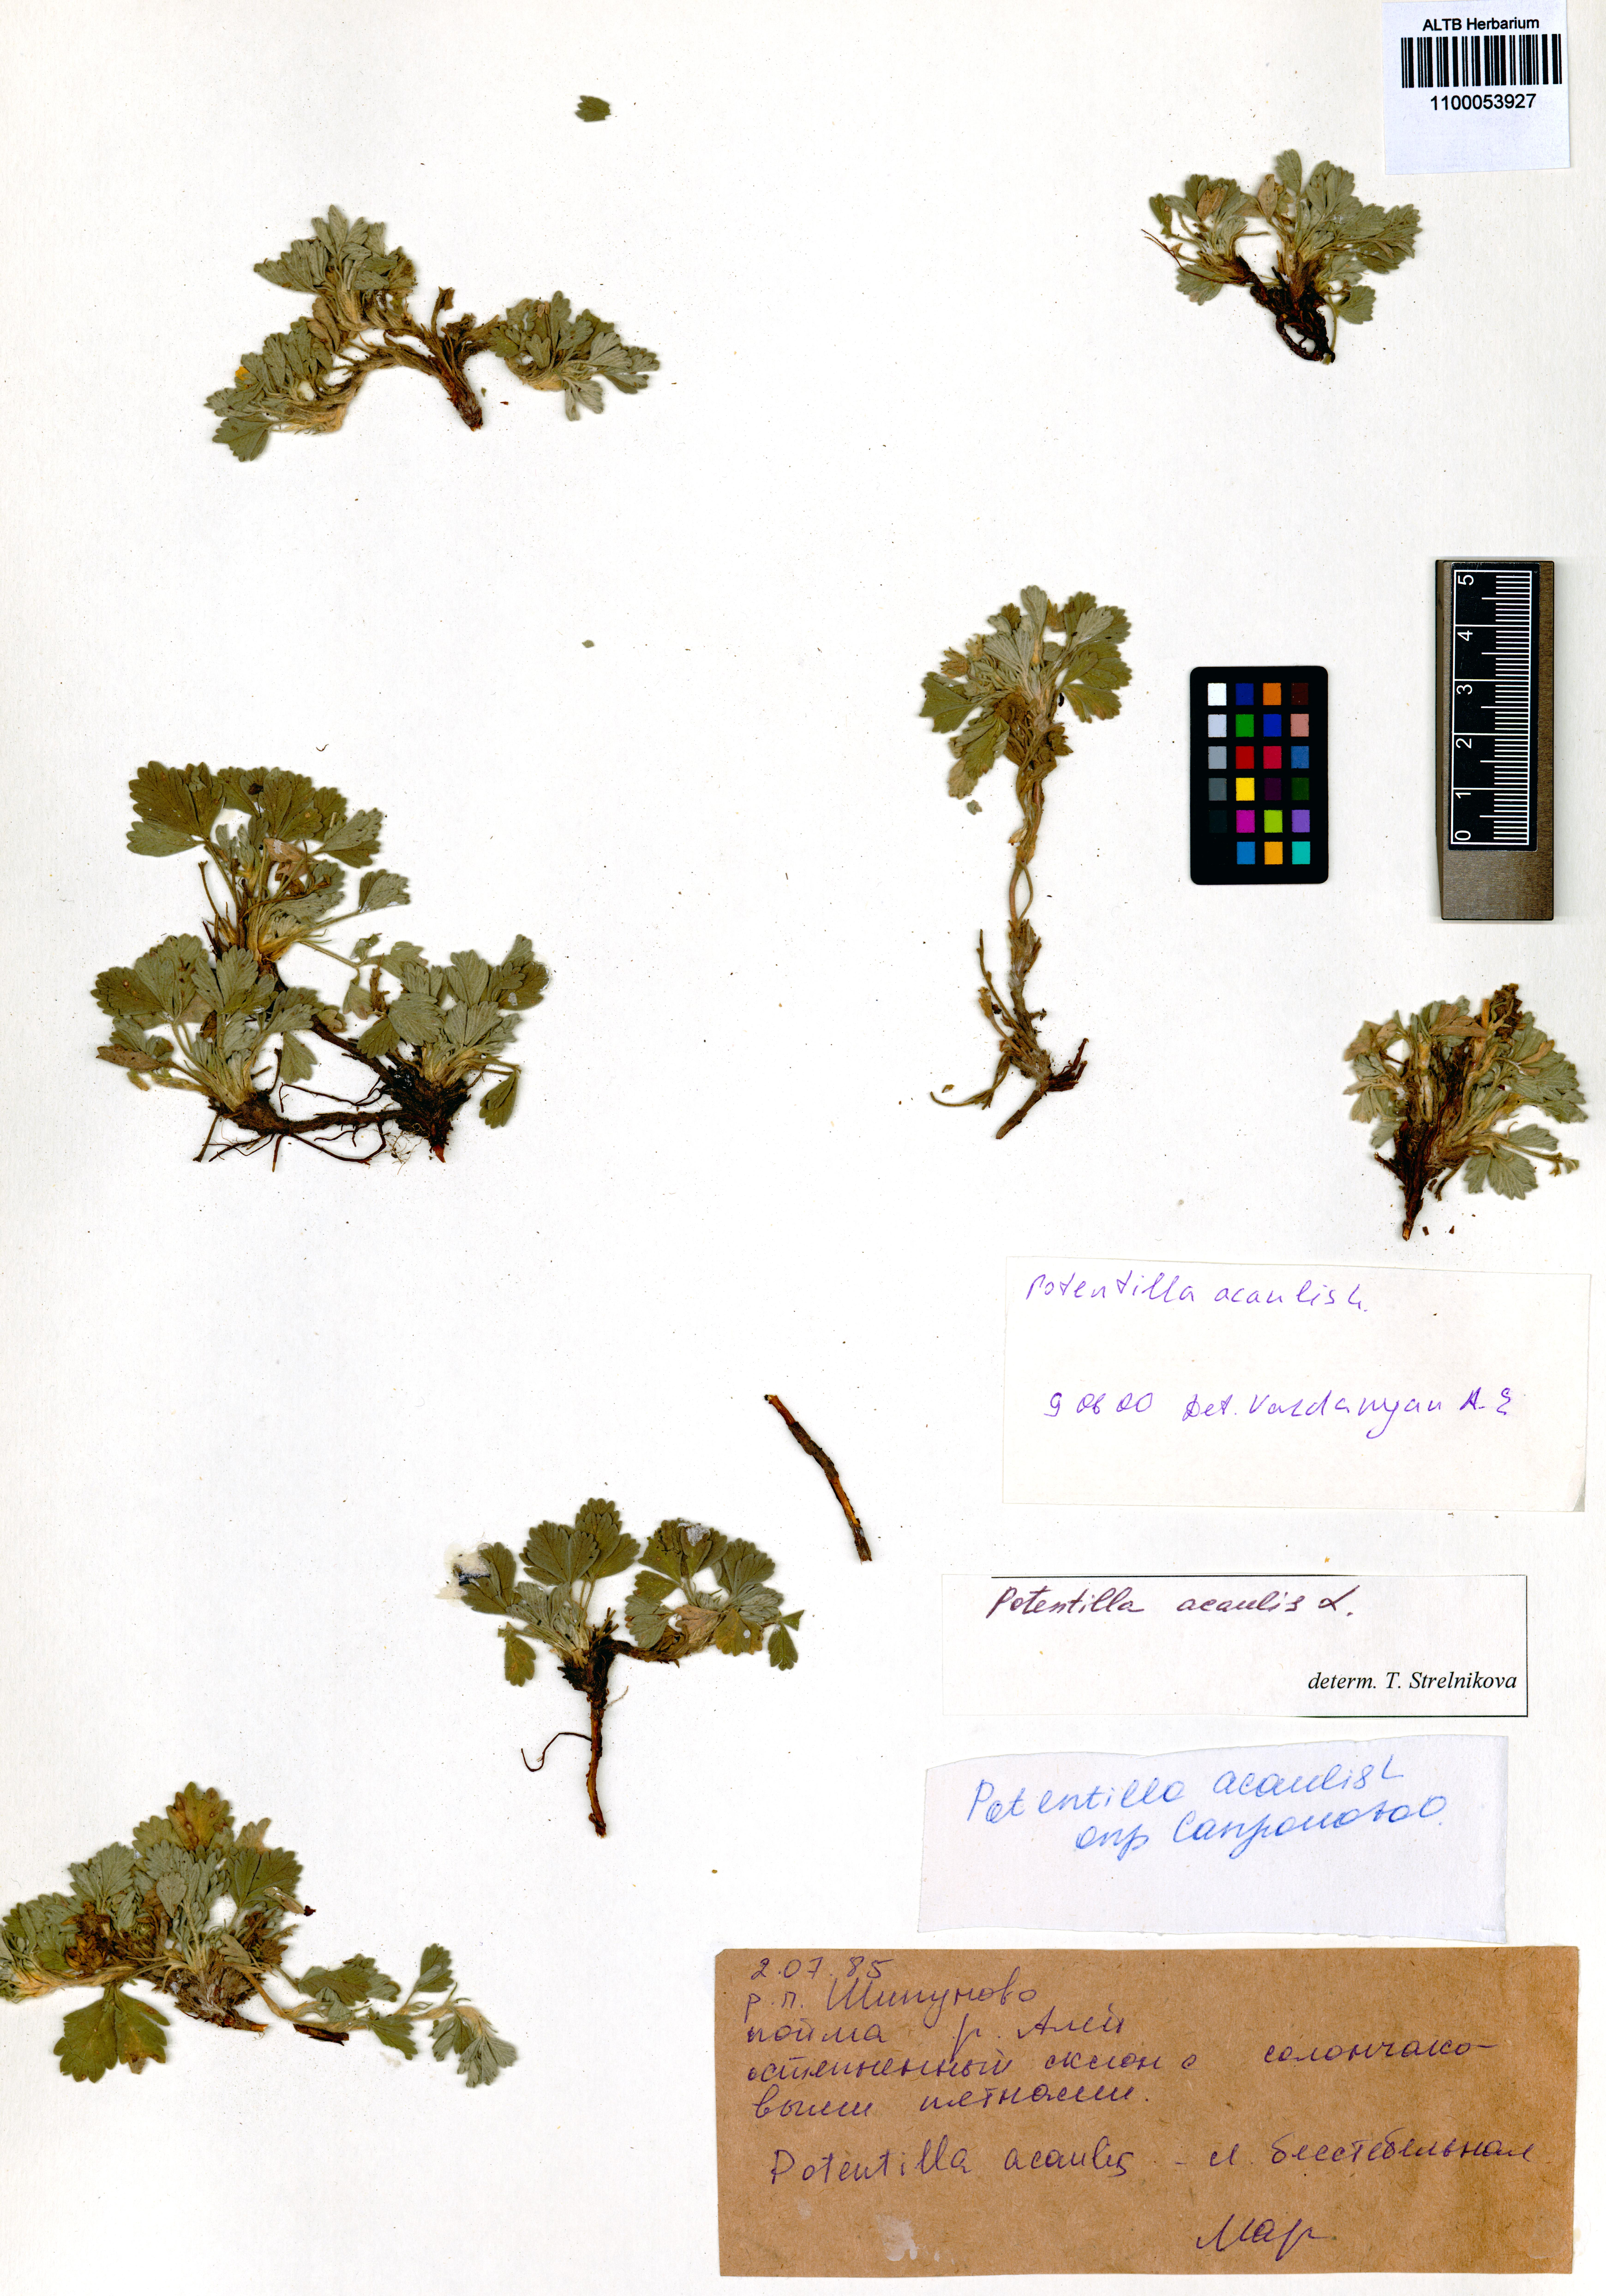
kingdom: Plantae
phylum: Tracheophyta
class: Magnoliopsida
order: Rosales
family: Rosaceae
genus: Potentilla
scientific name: Potentilla acaulis
